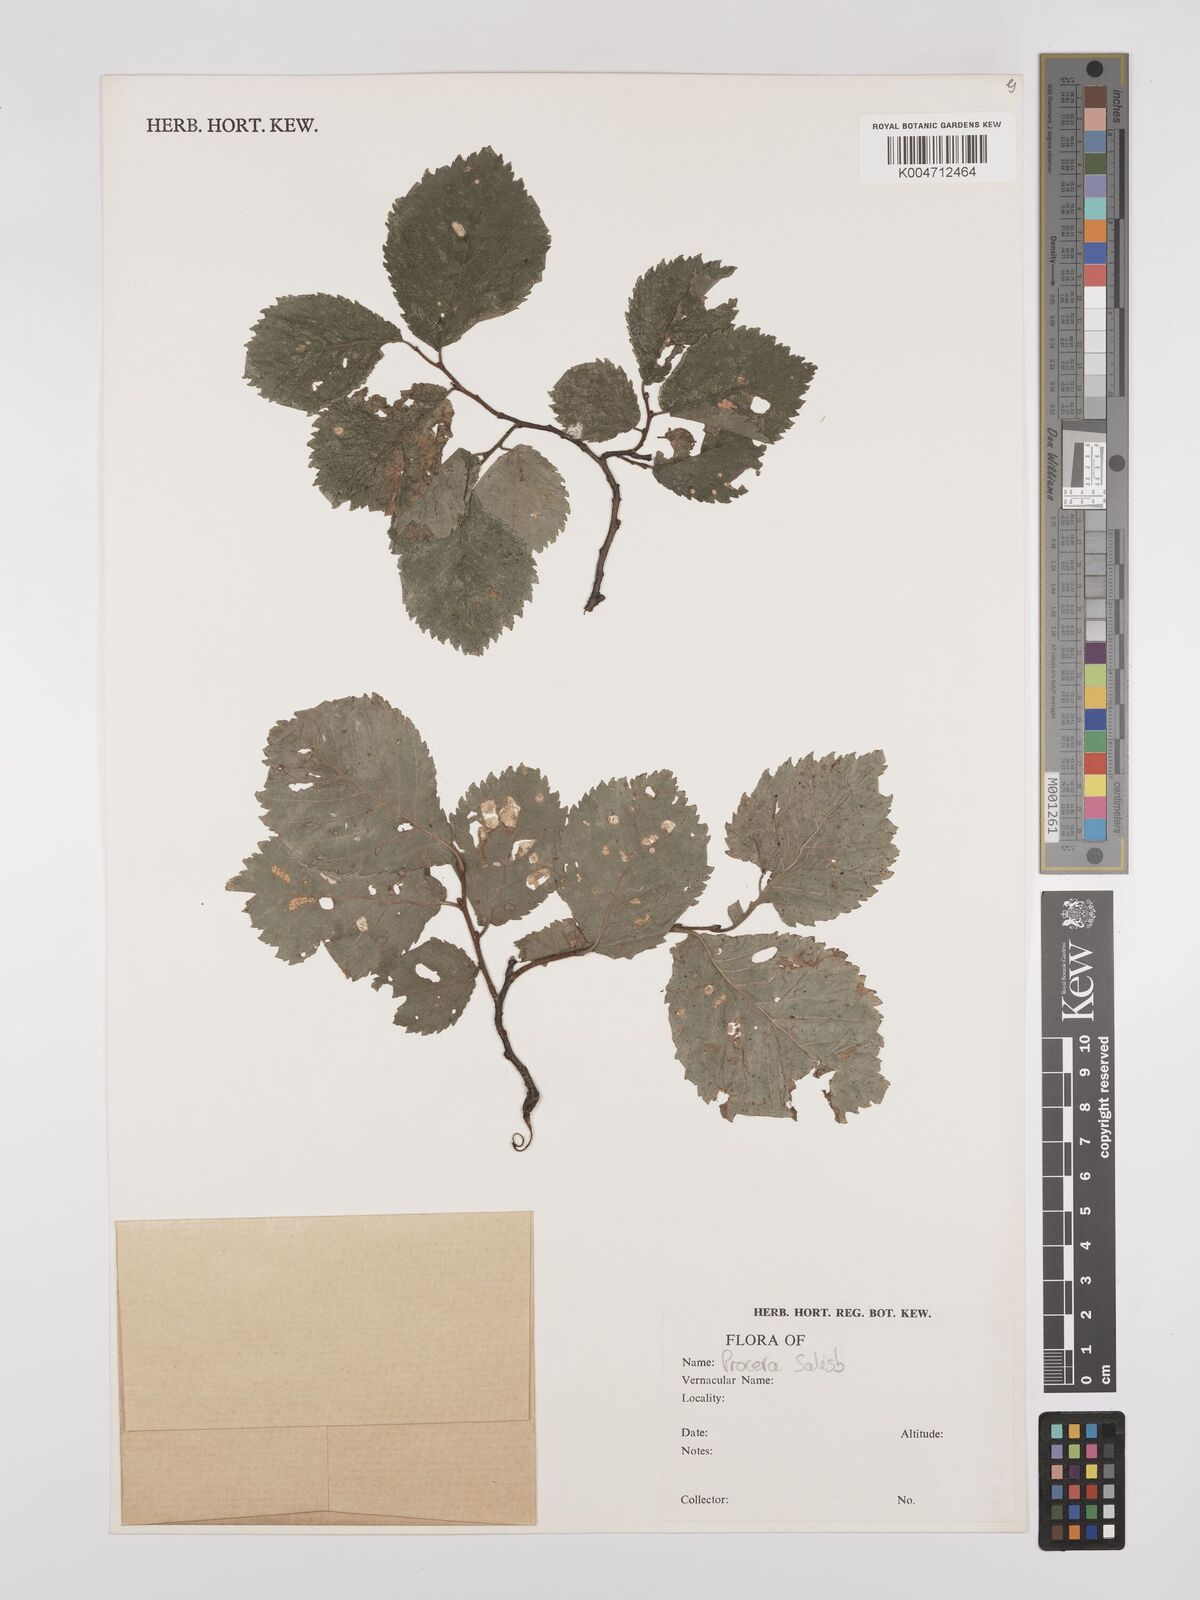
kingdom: Plantae
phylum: Tracheophyta
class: Magnoliopsida
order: Rosales
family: Ulmaceae
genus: Ulmus
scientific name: Ulmus minor
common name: Small-leaved elm
